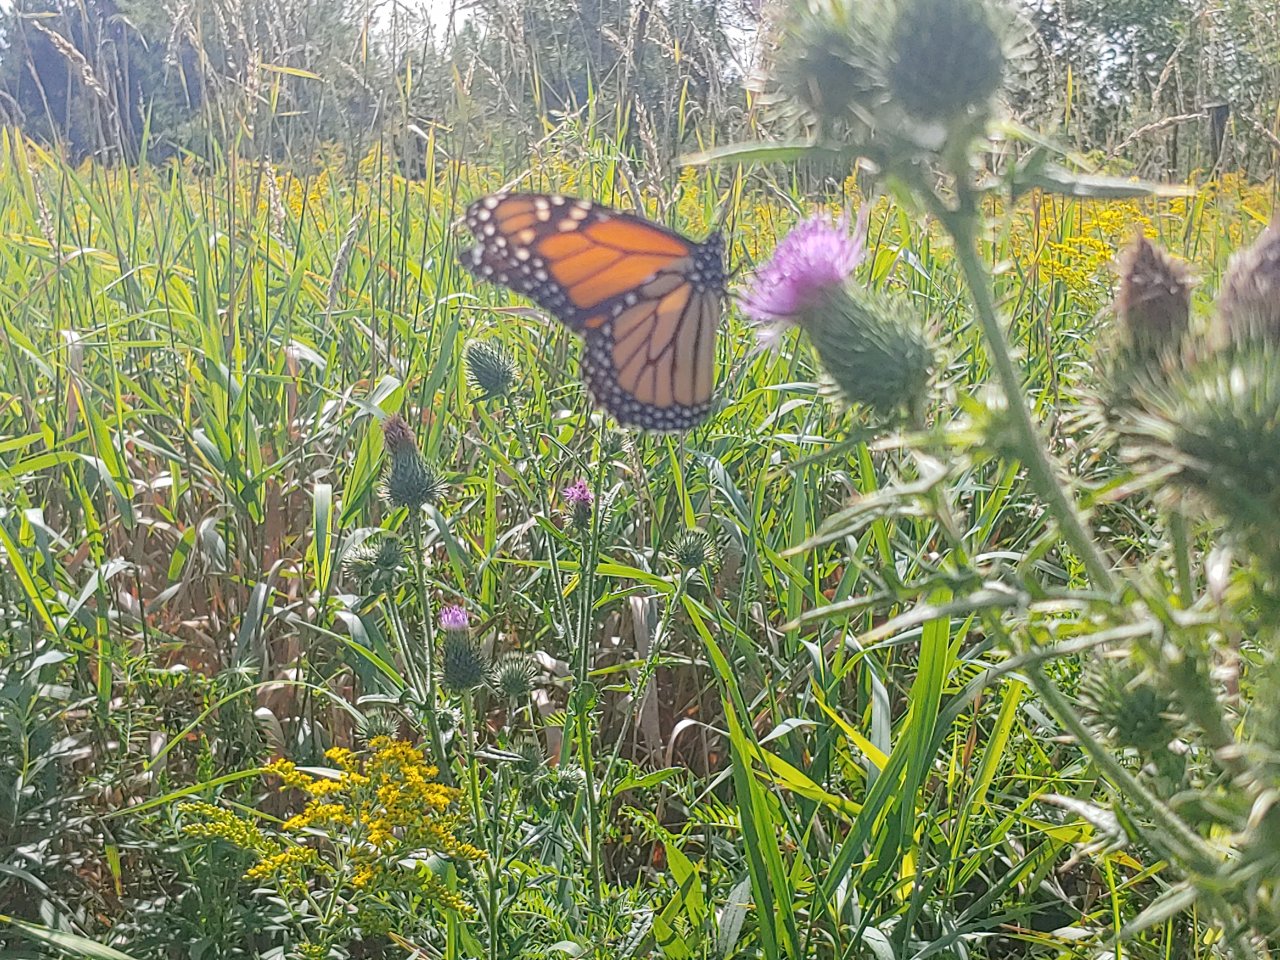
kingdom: Animalia
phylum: Arthropoda
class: Insecta
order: Lepidoptera
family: Nymphalidae
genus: Danaus
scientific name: Danaus plexippus
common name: Monarch
